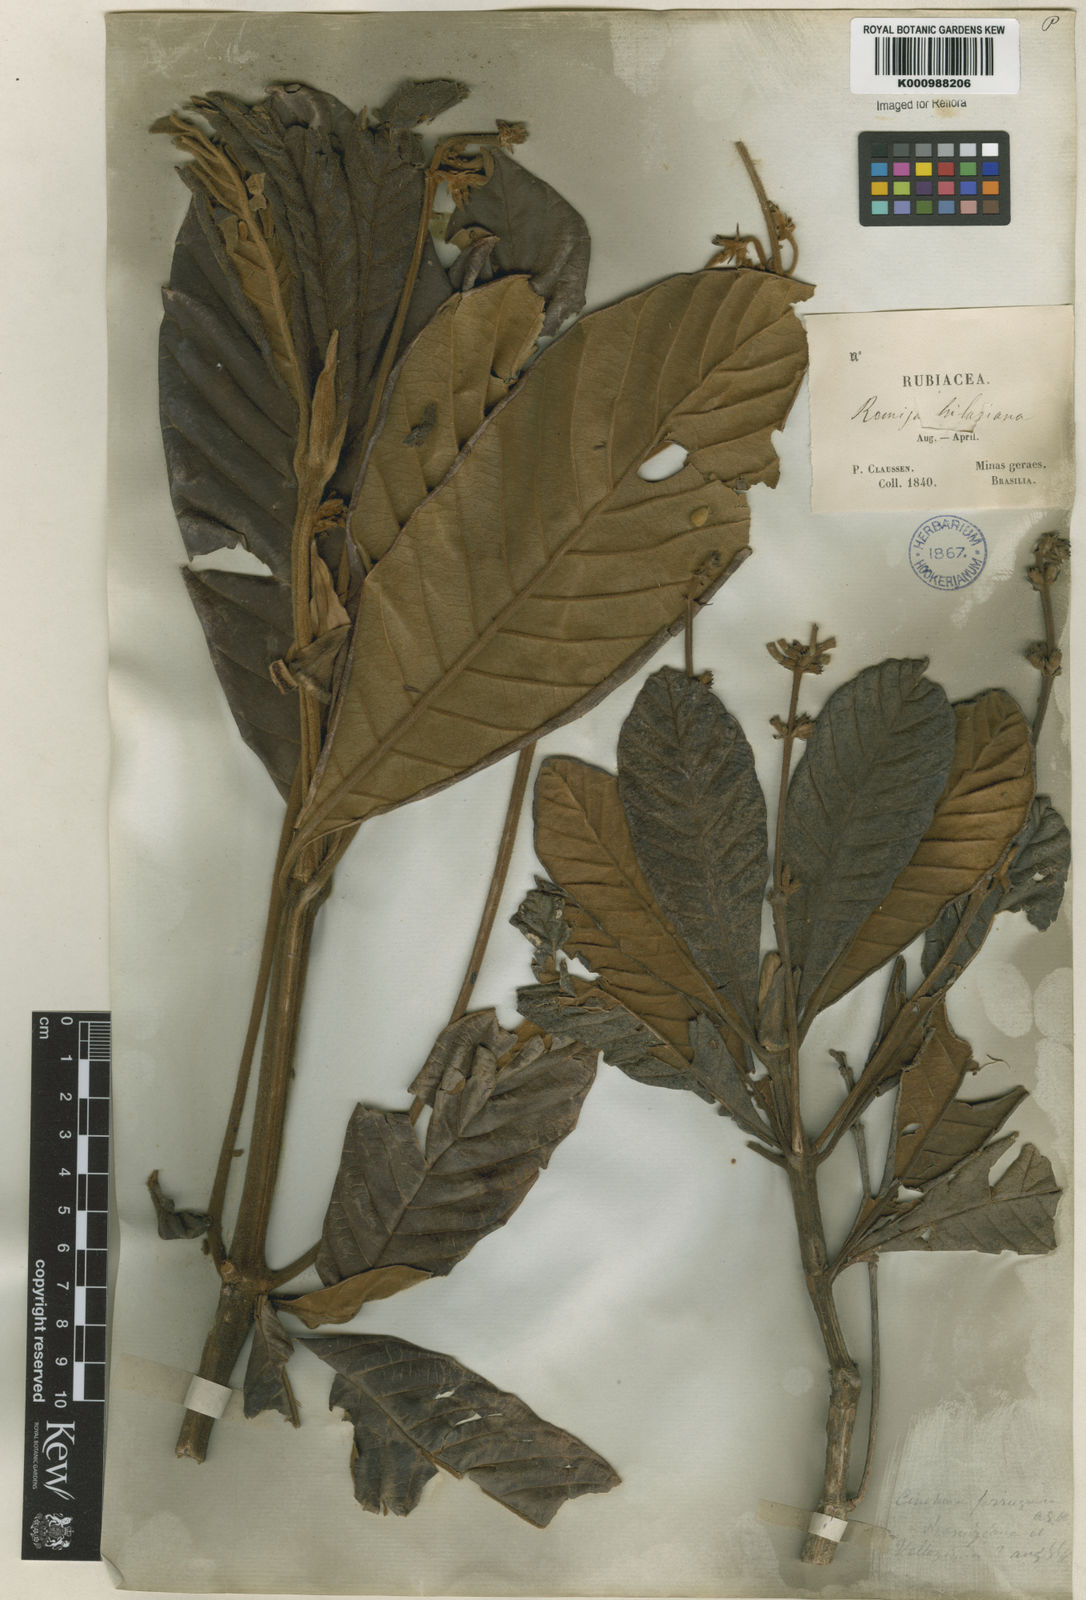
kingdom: Plantae
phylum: Tracheophyta
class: Magnoliopsida
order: Gentianales
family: Rubiaceae
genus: Remijia
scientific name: Remijia ferruginea
